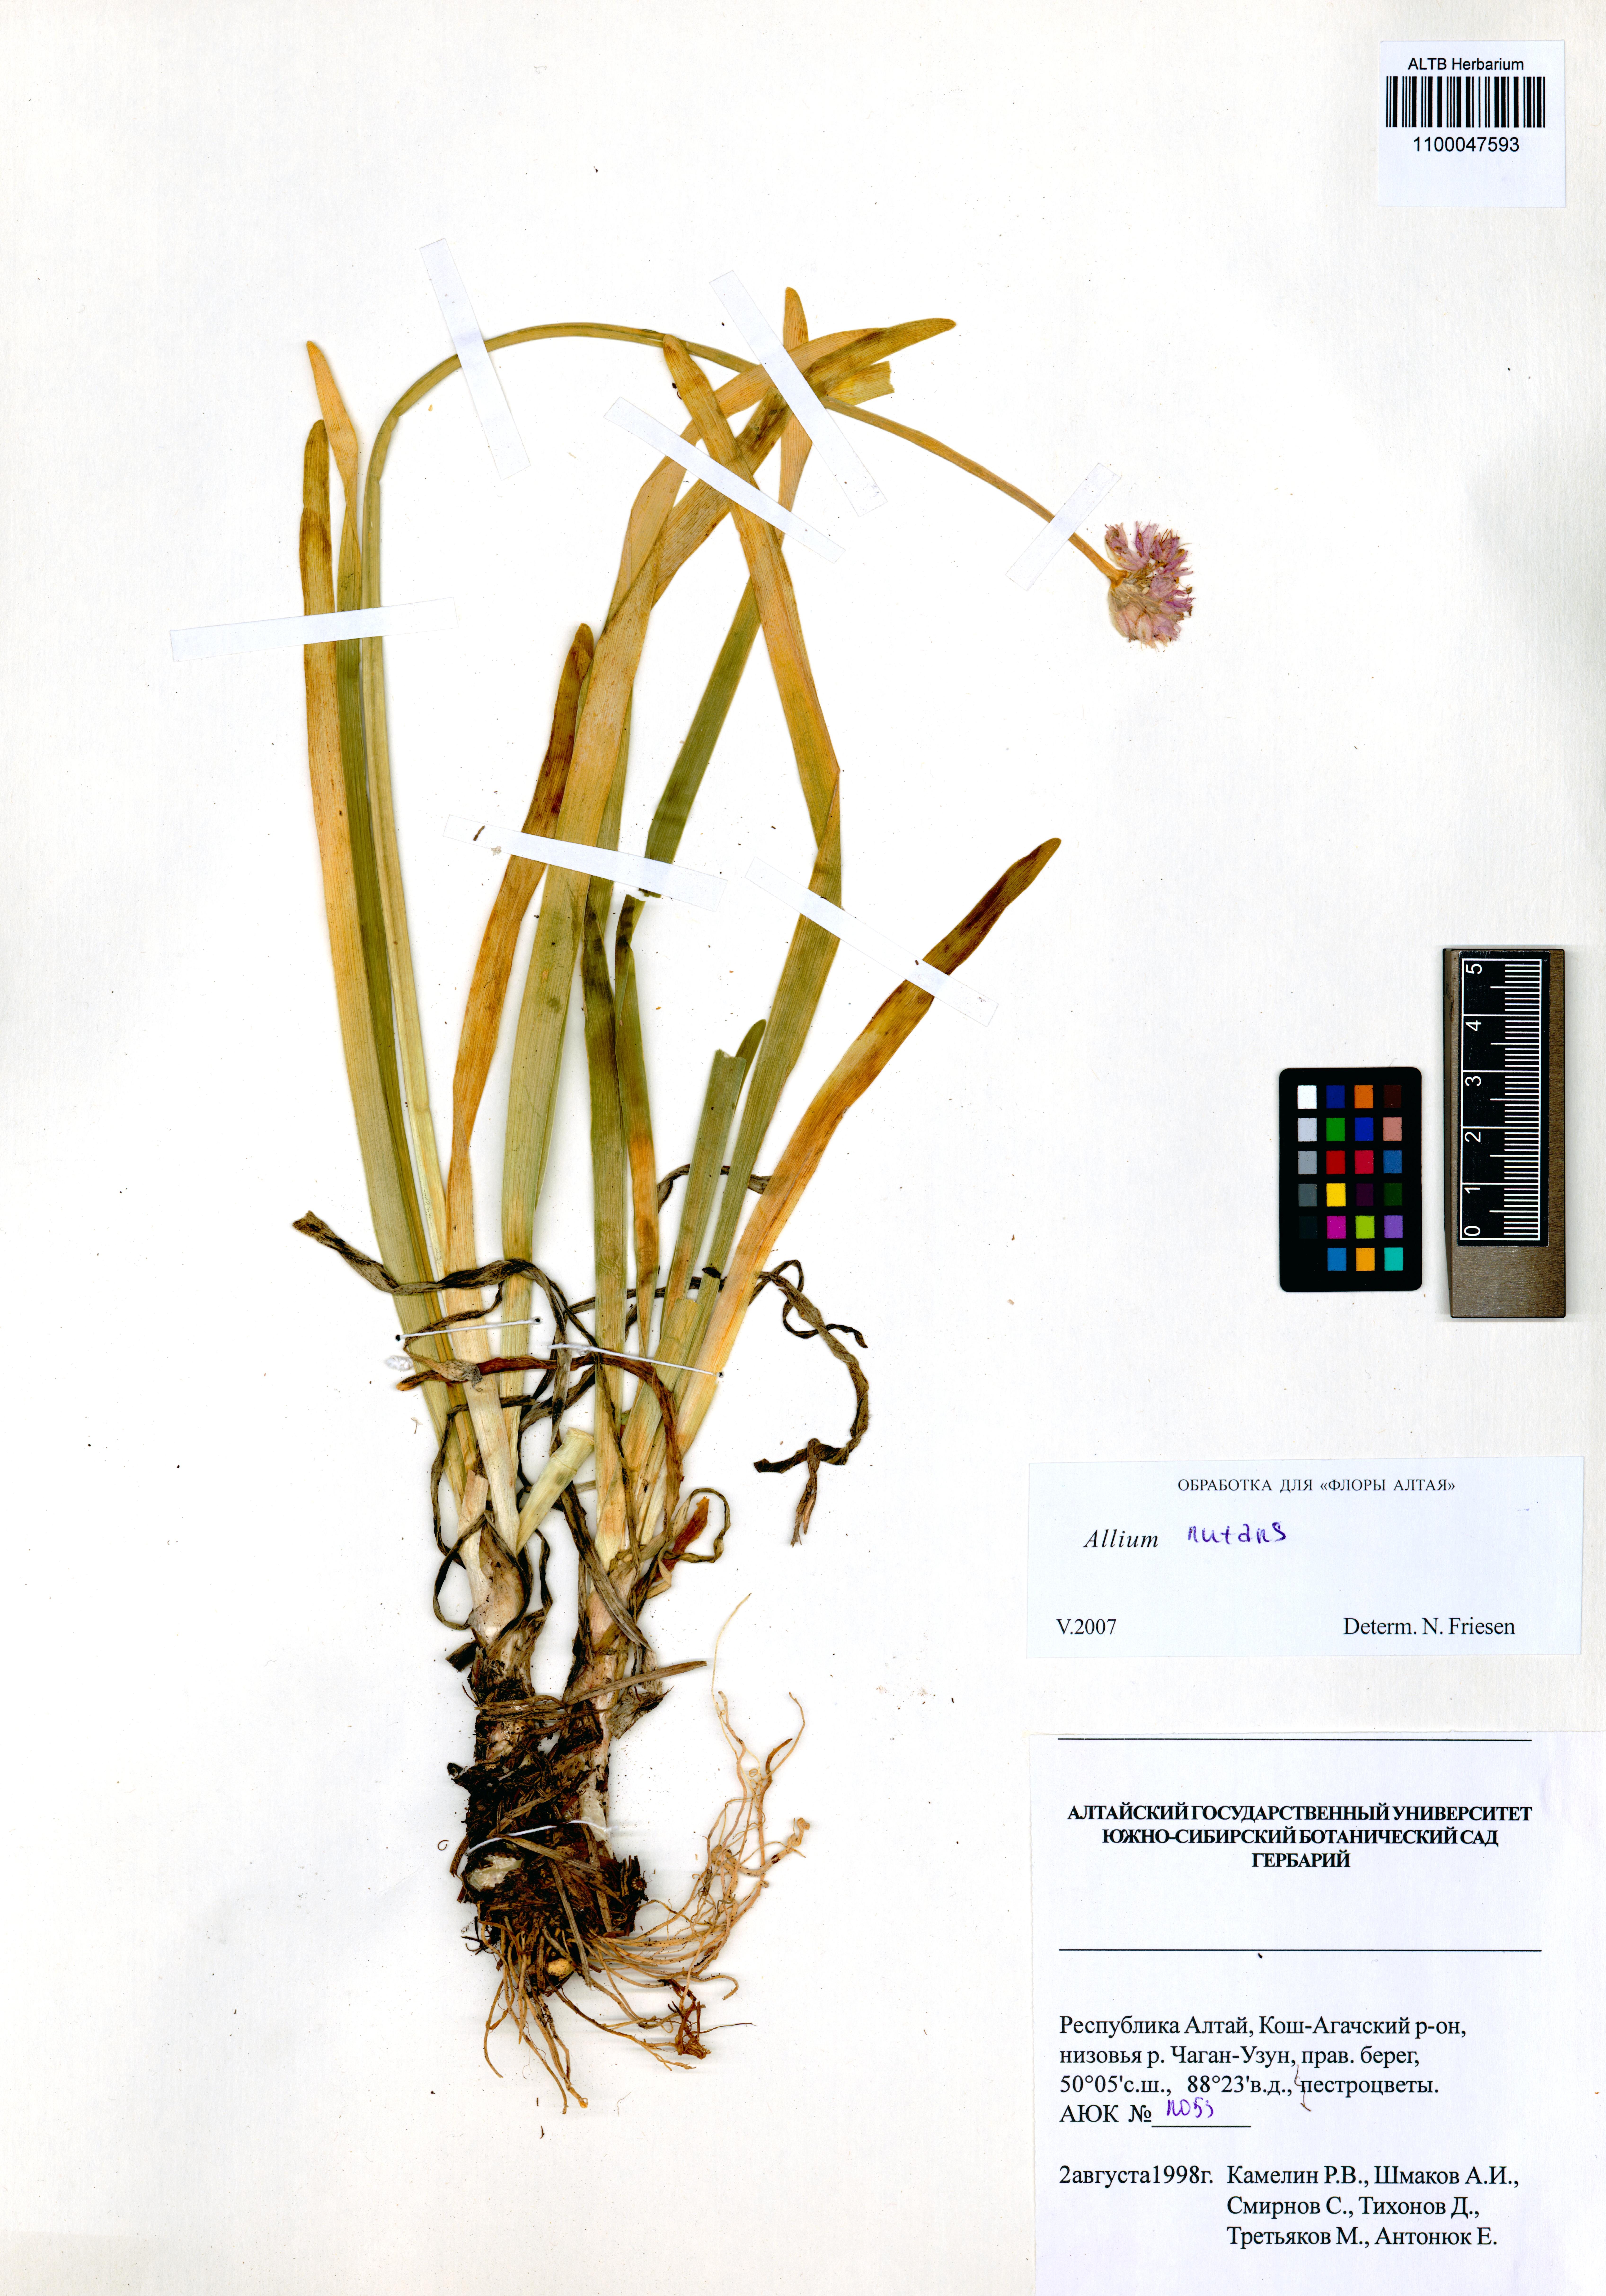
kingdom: Plantae
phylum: Tracheophyta
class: Liliopsida
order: Asparagales
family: Amaryllidaceae
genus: Allium
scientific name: Allium nutans
